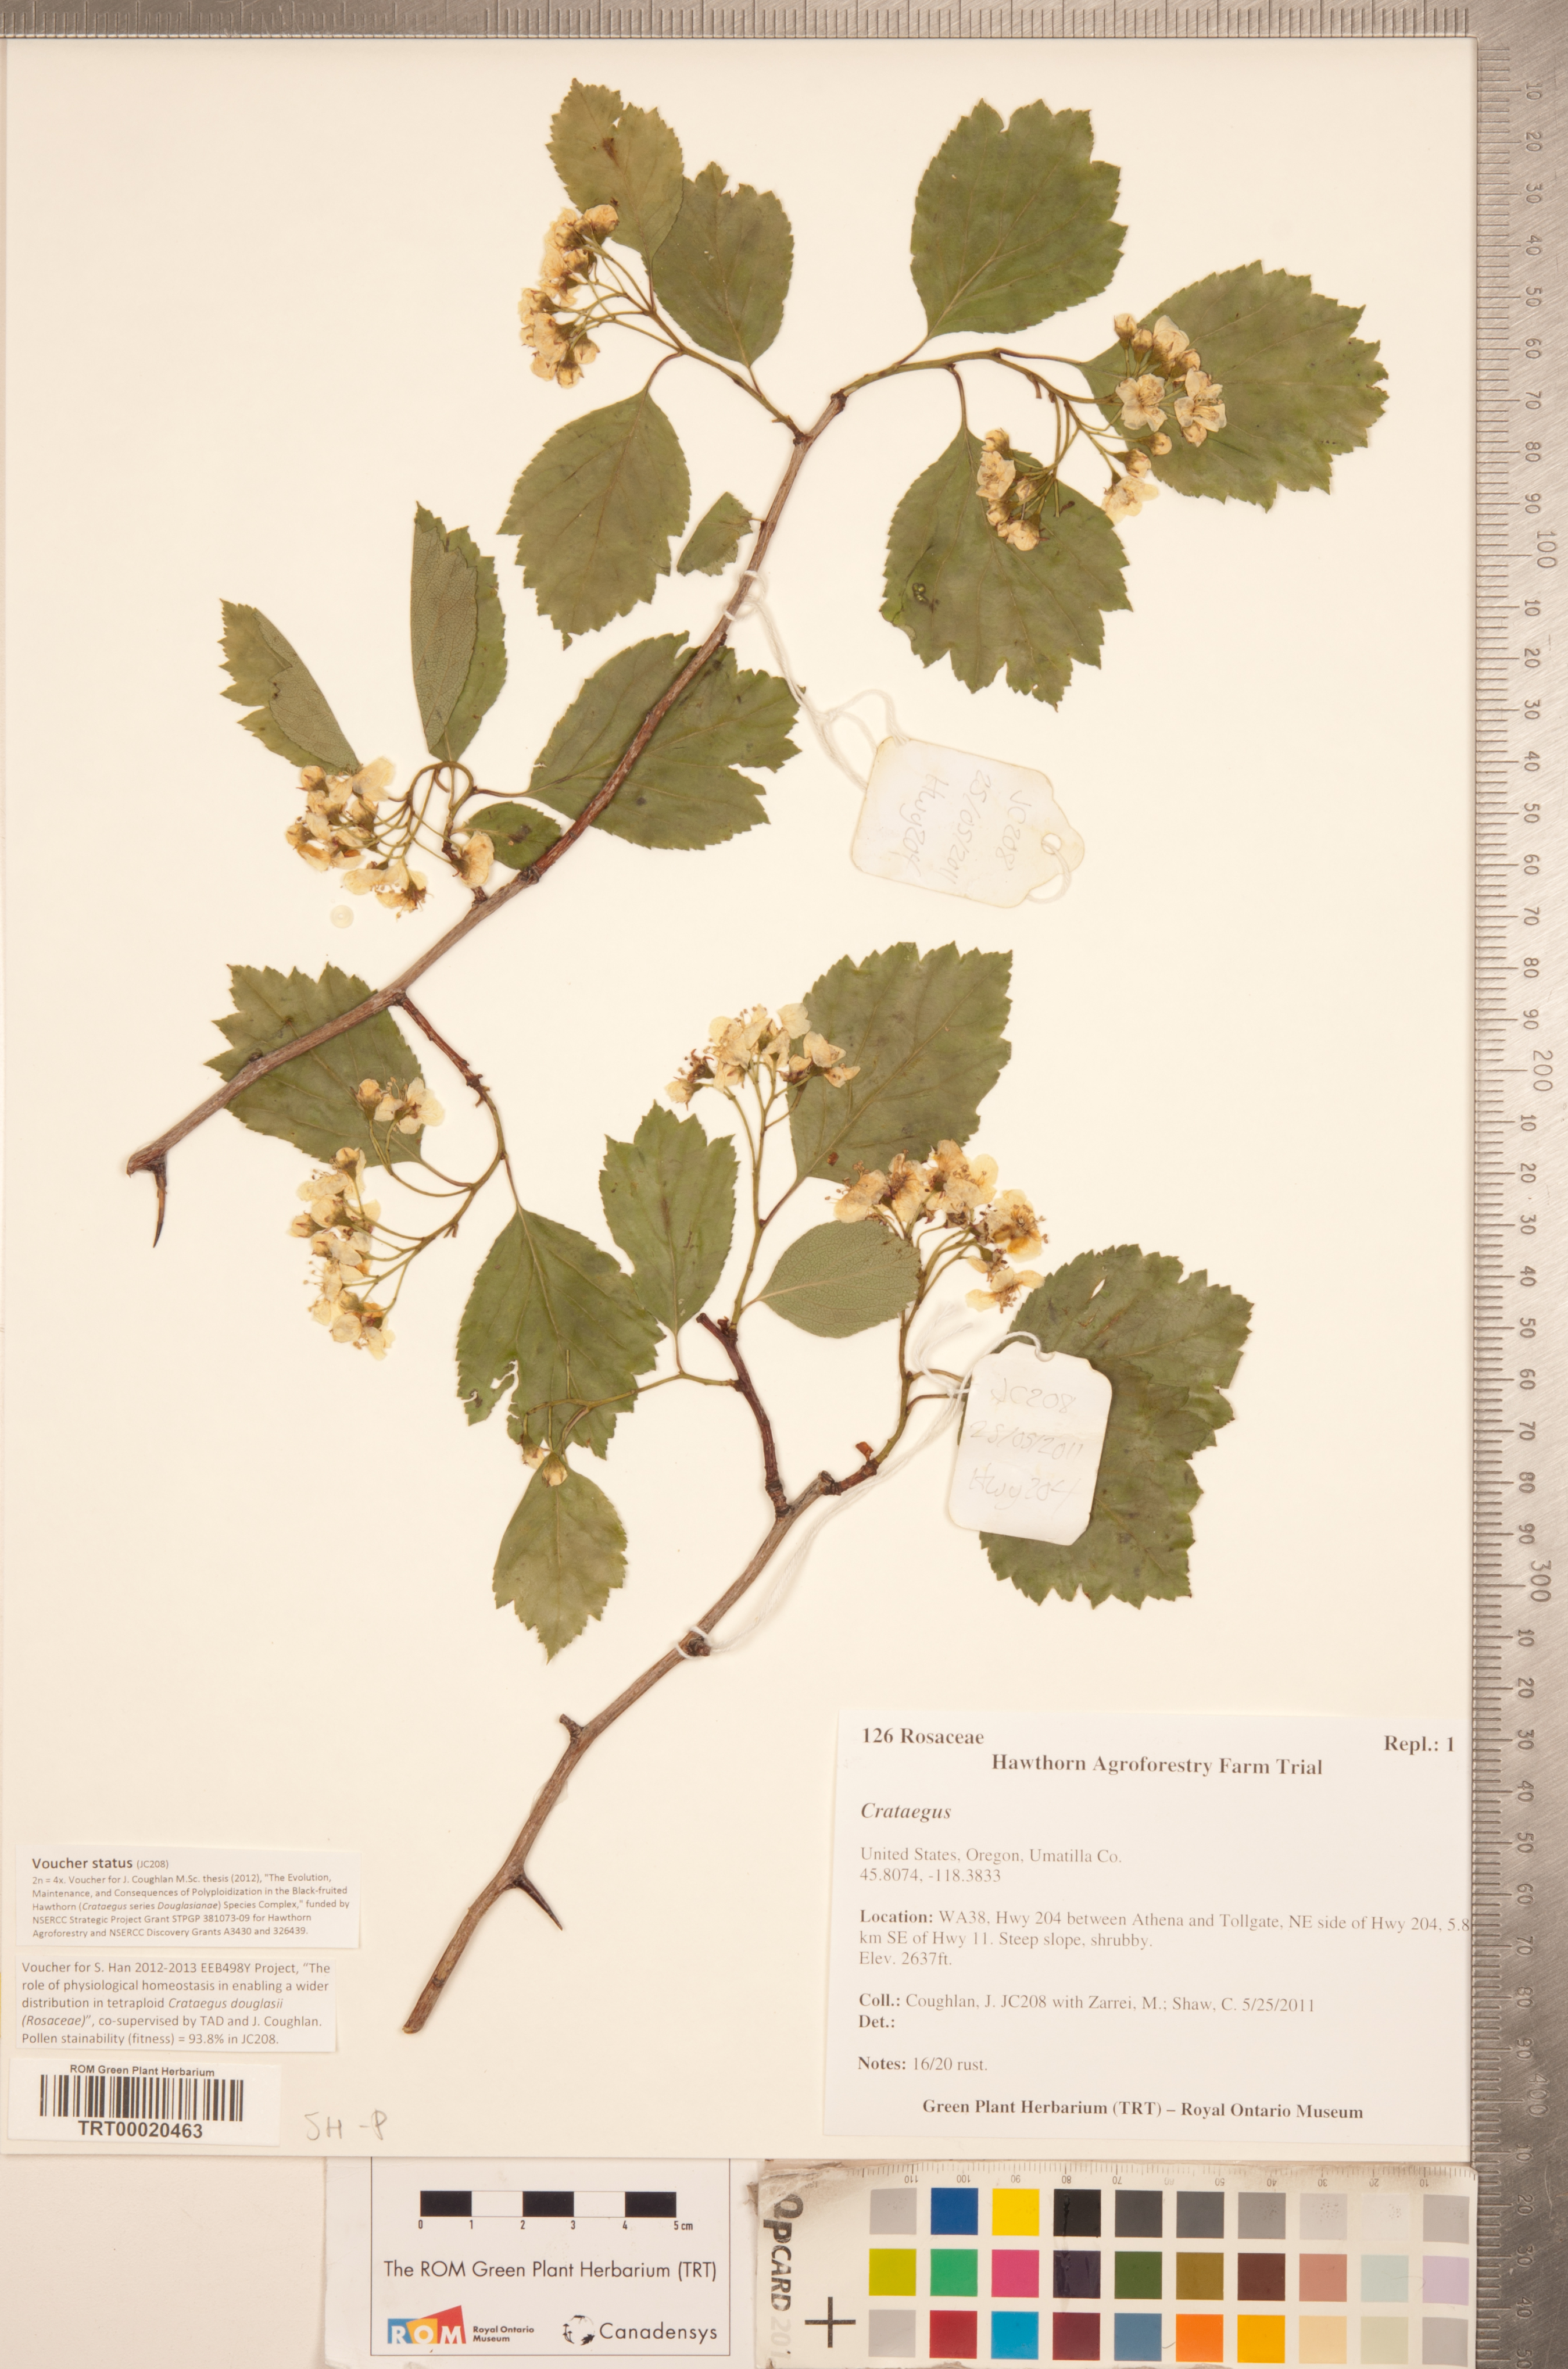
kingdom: Plantae
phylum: Tracheophyta
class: Magnoliopsida
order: Rosales
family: Rosaceae
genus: Crataegus
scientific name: Crataegus douglasii
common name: Black hawthorn
